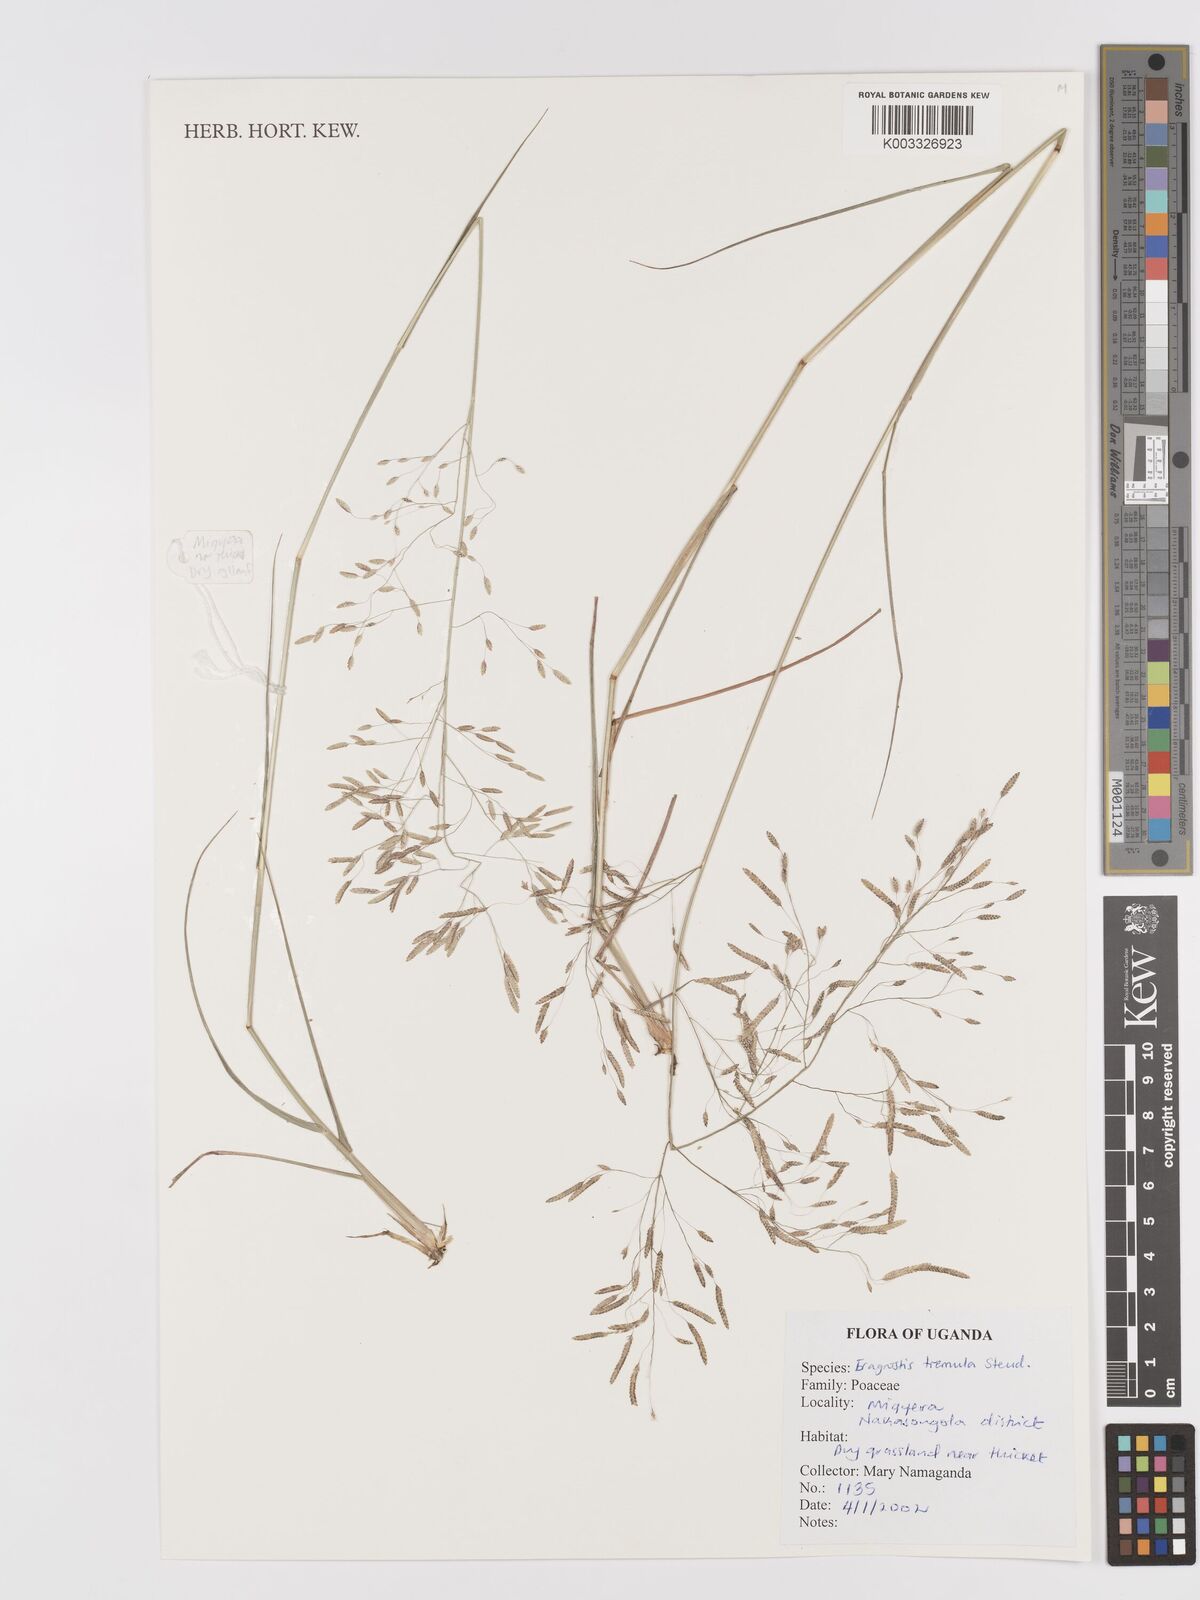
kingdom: Plantae
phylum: Tracheophyta
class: Liliopsida
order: Poales
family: Poaceae
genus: Eragrostis
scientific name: Eragrostis tremula
